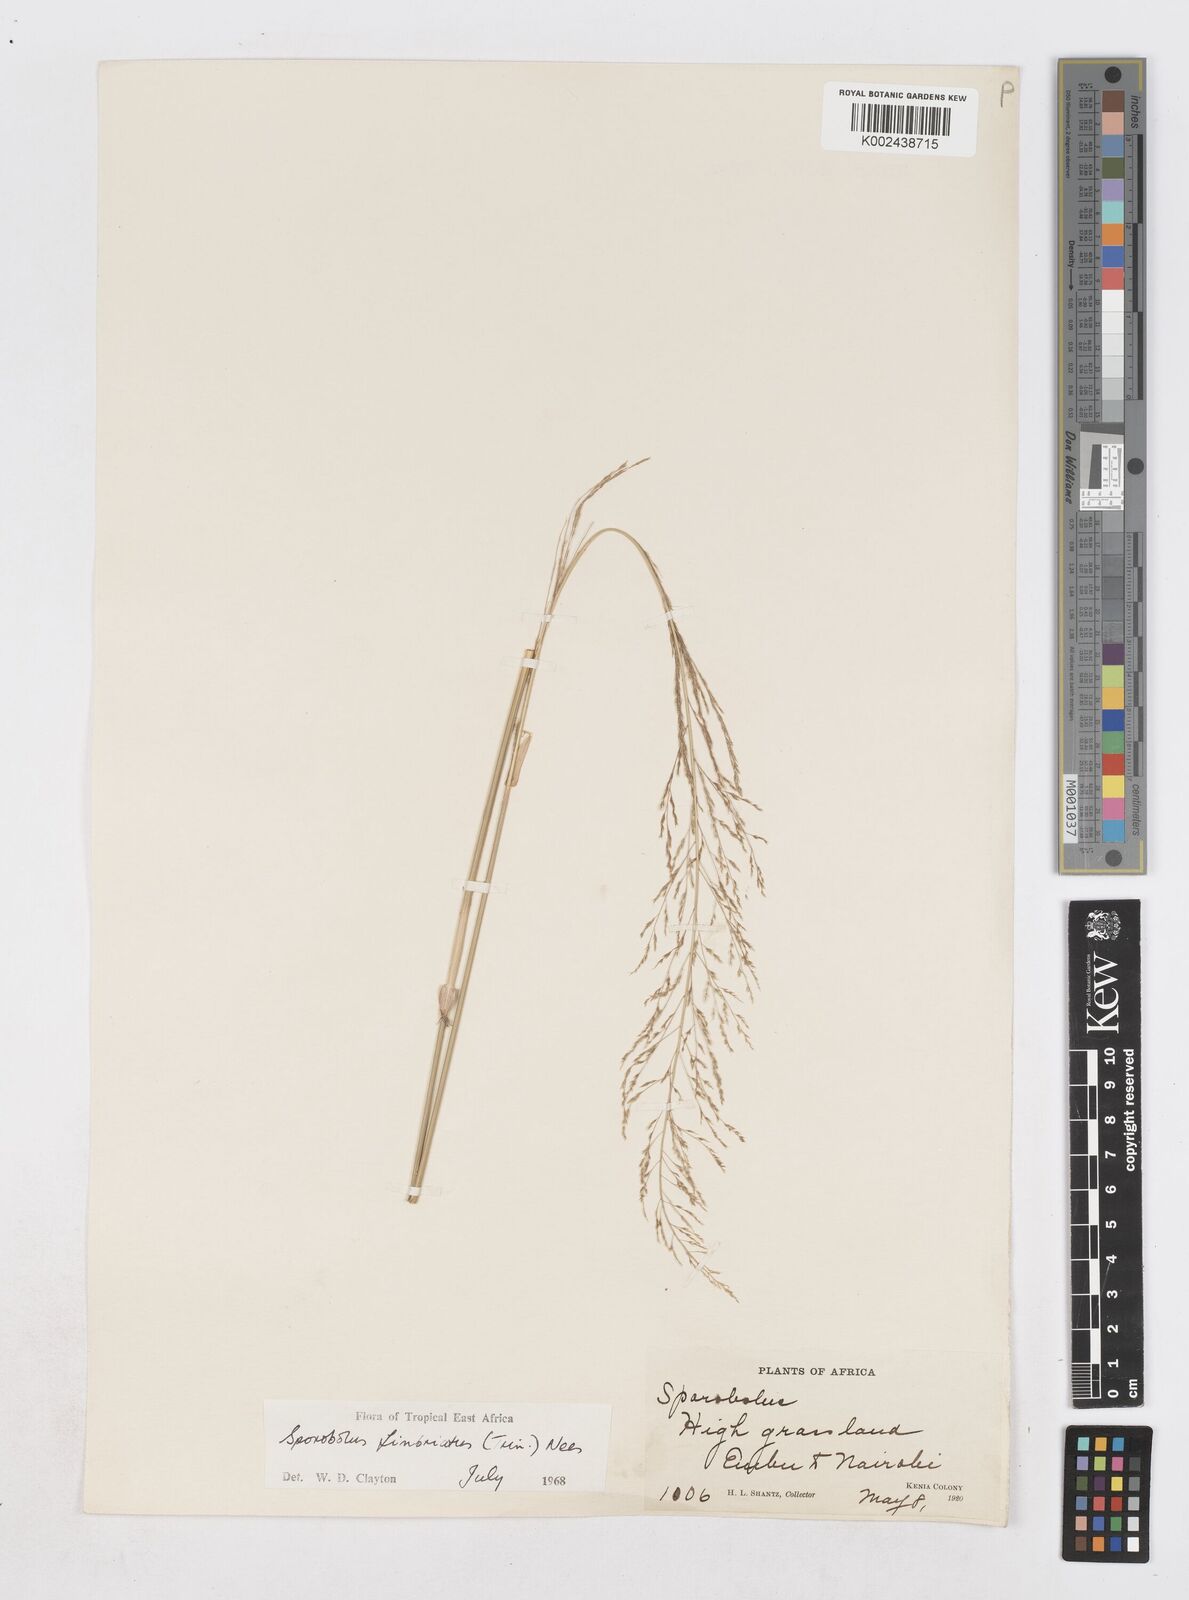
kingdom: Plantae
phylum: Tracheophyta
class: Liliopsida
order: Poales
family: Poaceae
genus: Sporobolus
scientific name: Sporobolus fimbriatus
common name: Fringed dropseed
